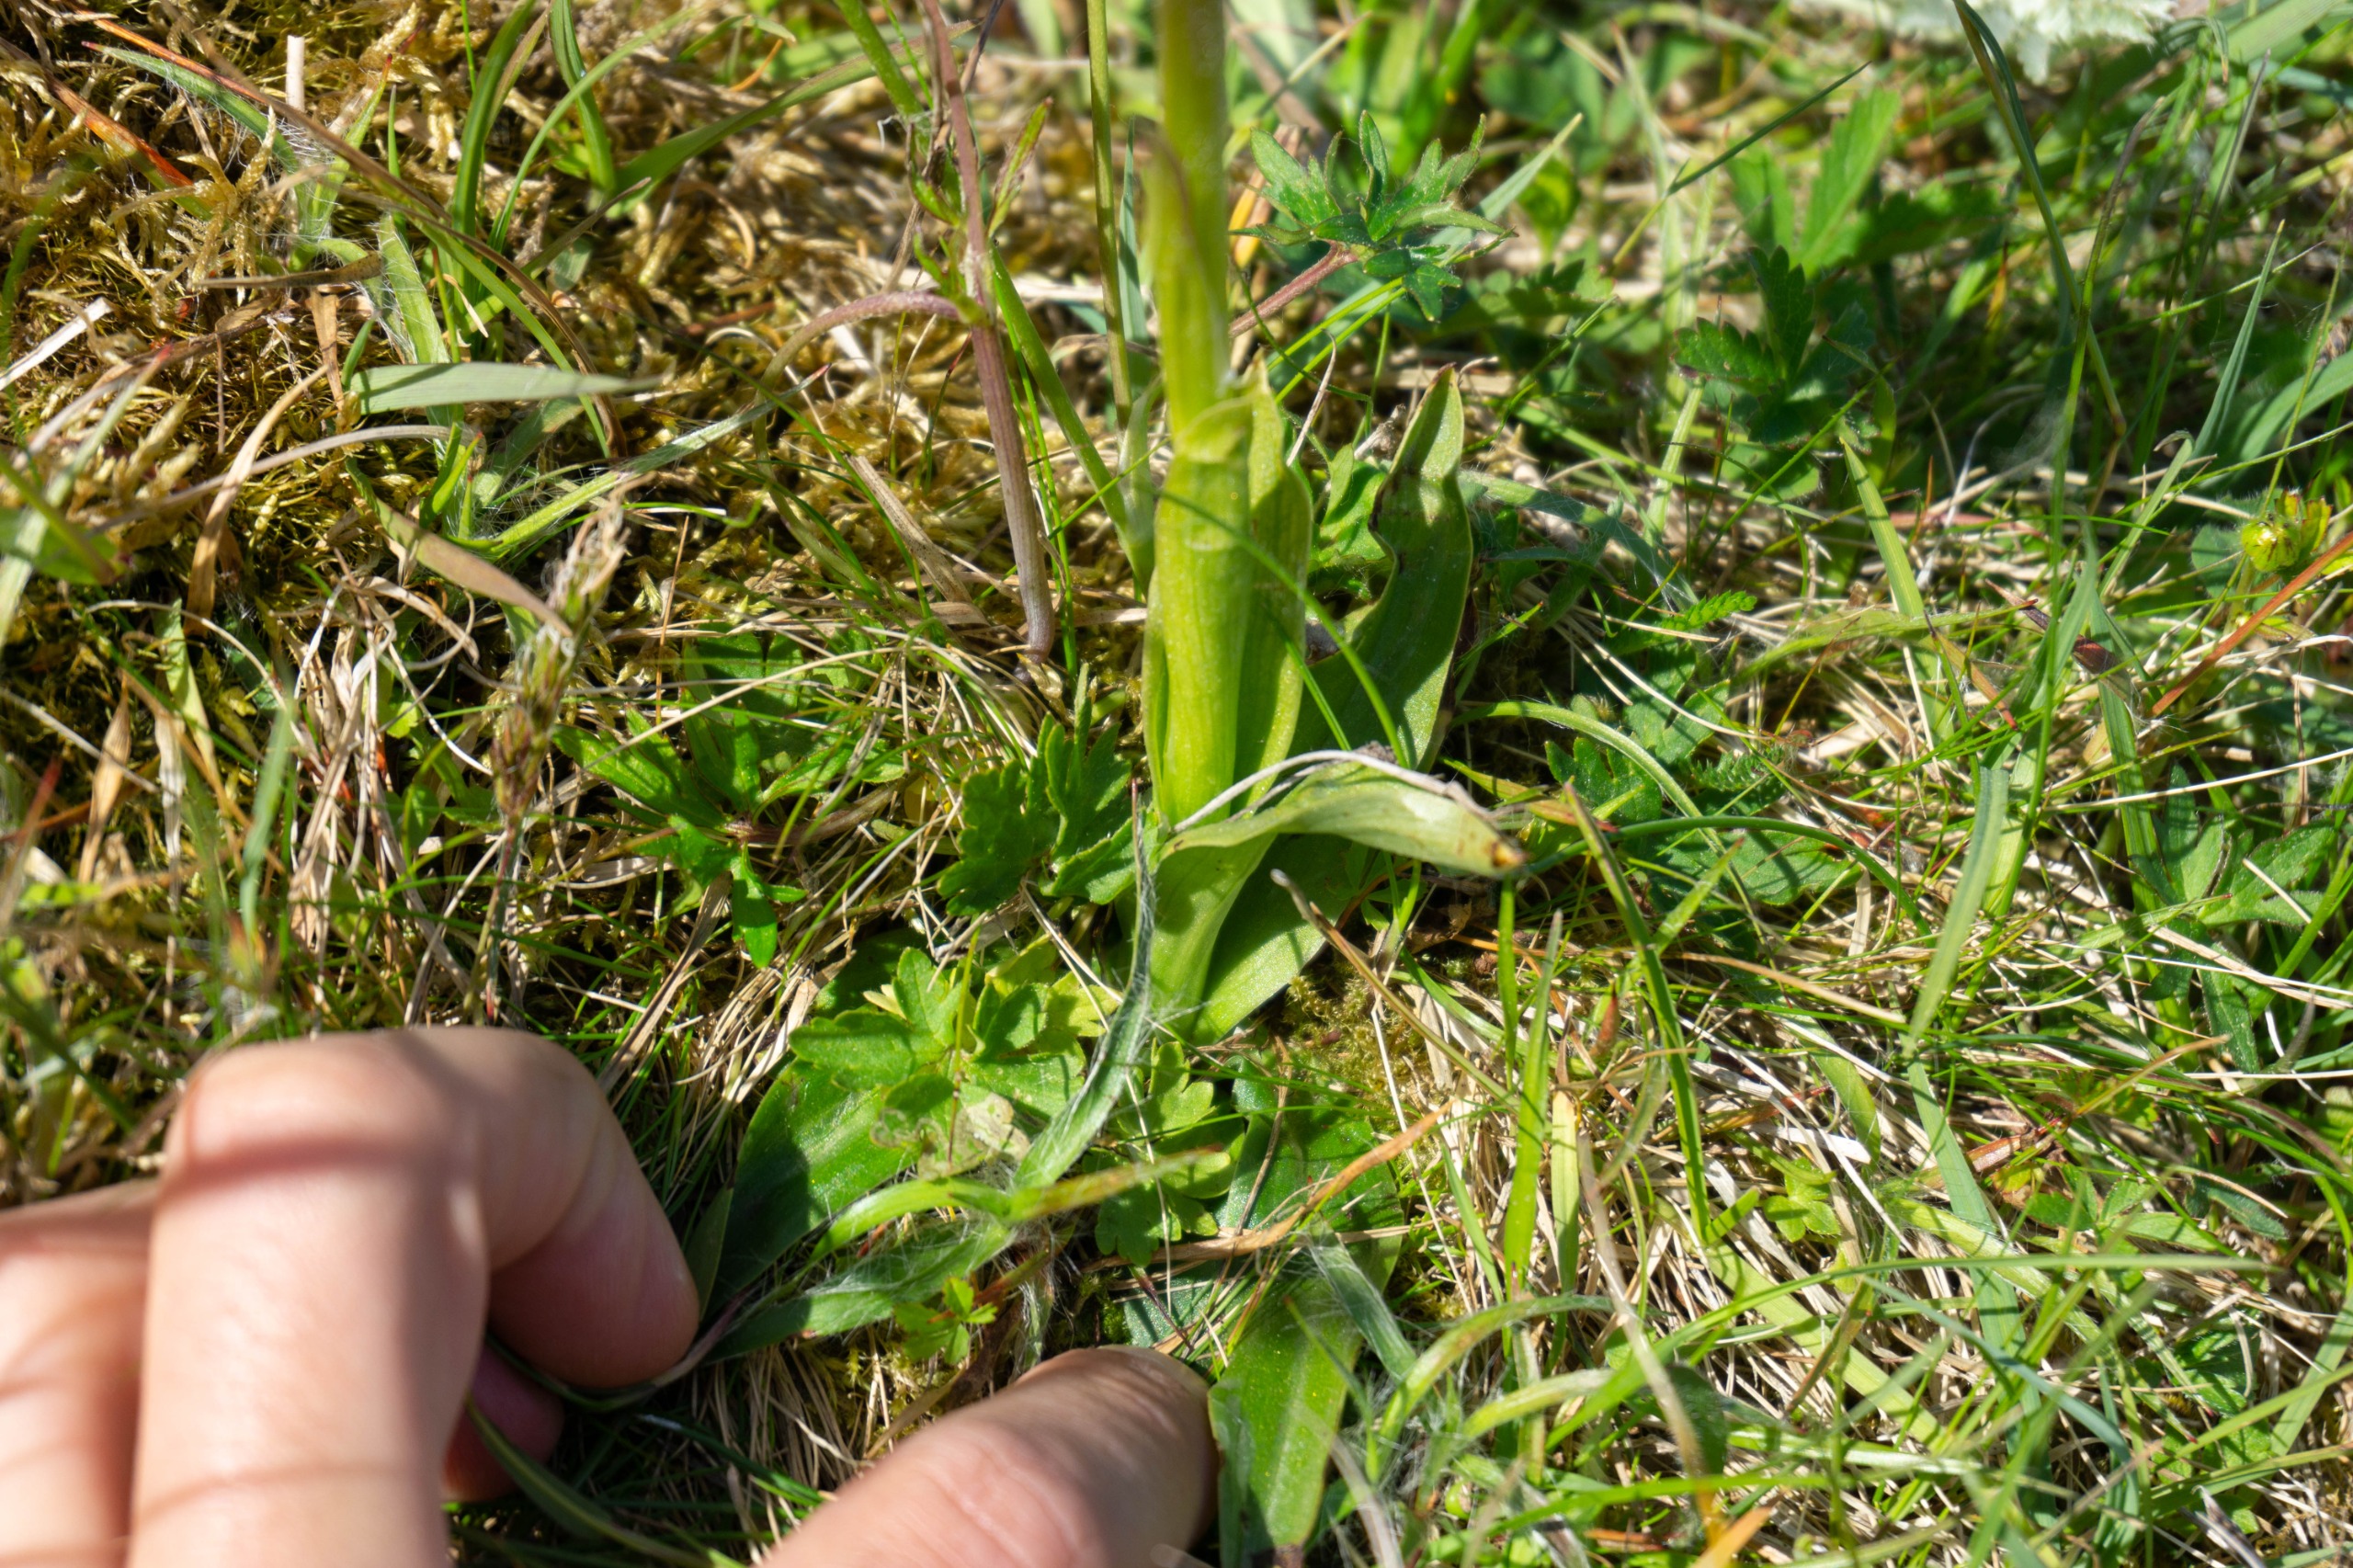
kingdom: Plantae
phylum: Tracheophyta
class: Liliopsida
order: Asparagales
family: Orchidaceae
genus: Anacamptis
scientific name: Anacamptis morio
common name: Salepgøgeurt
